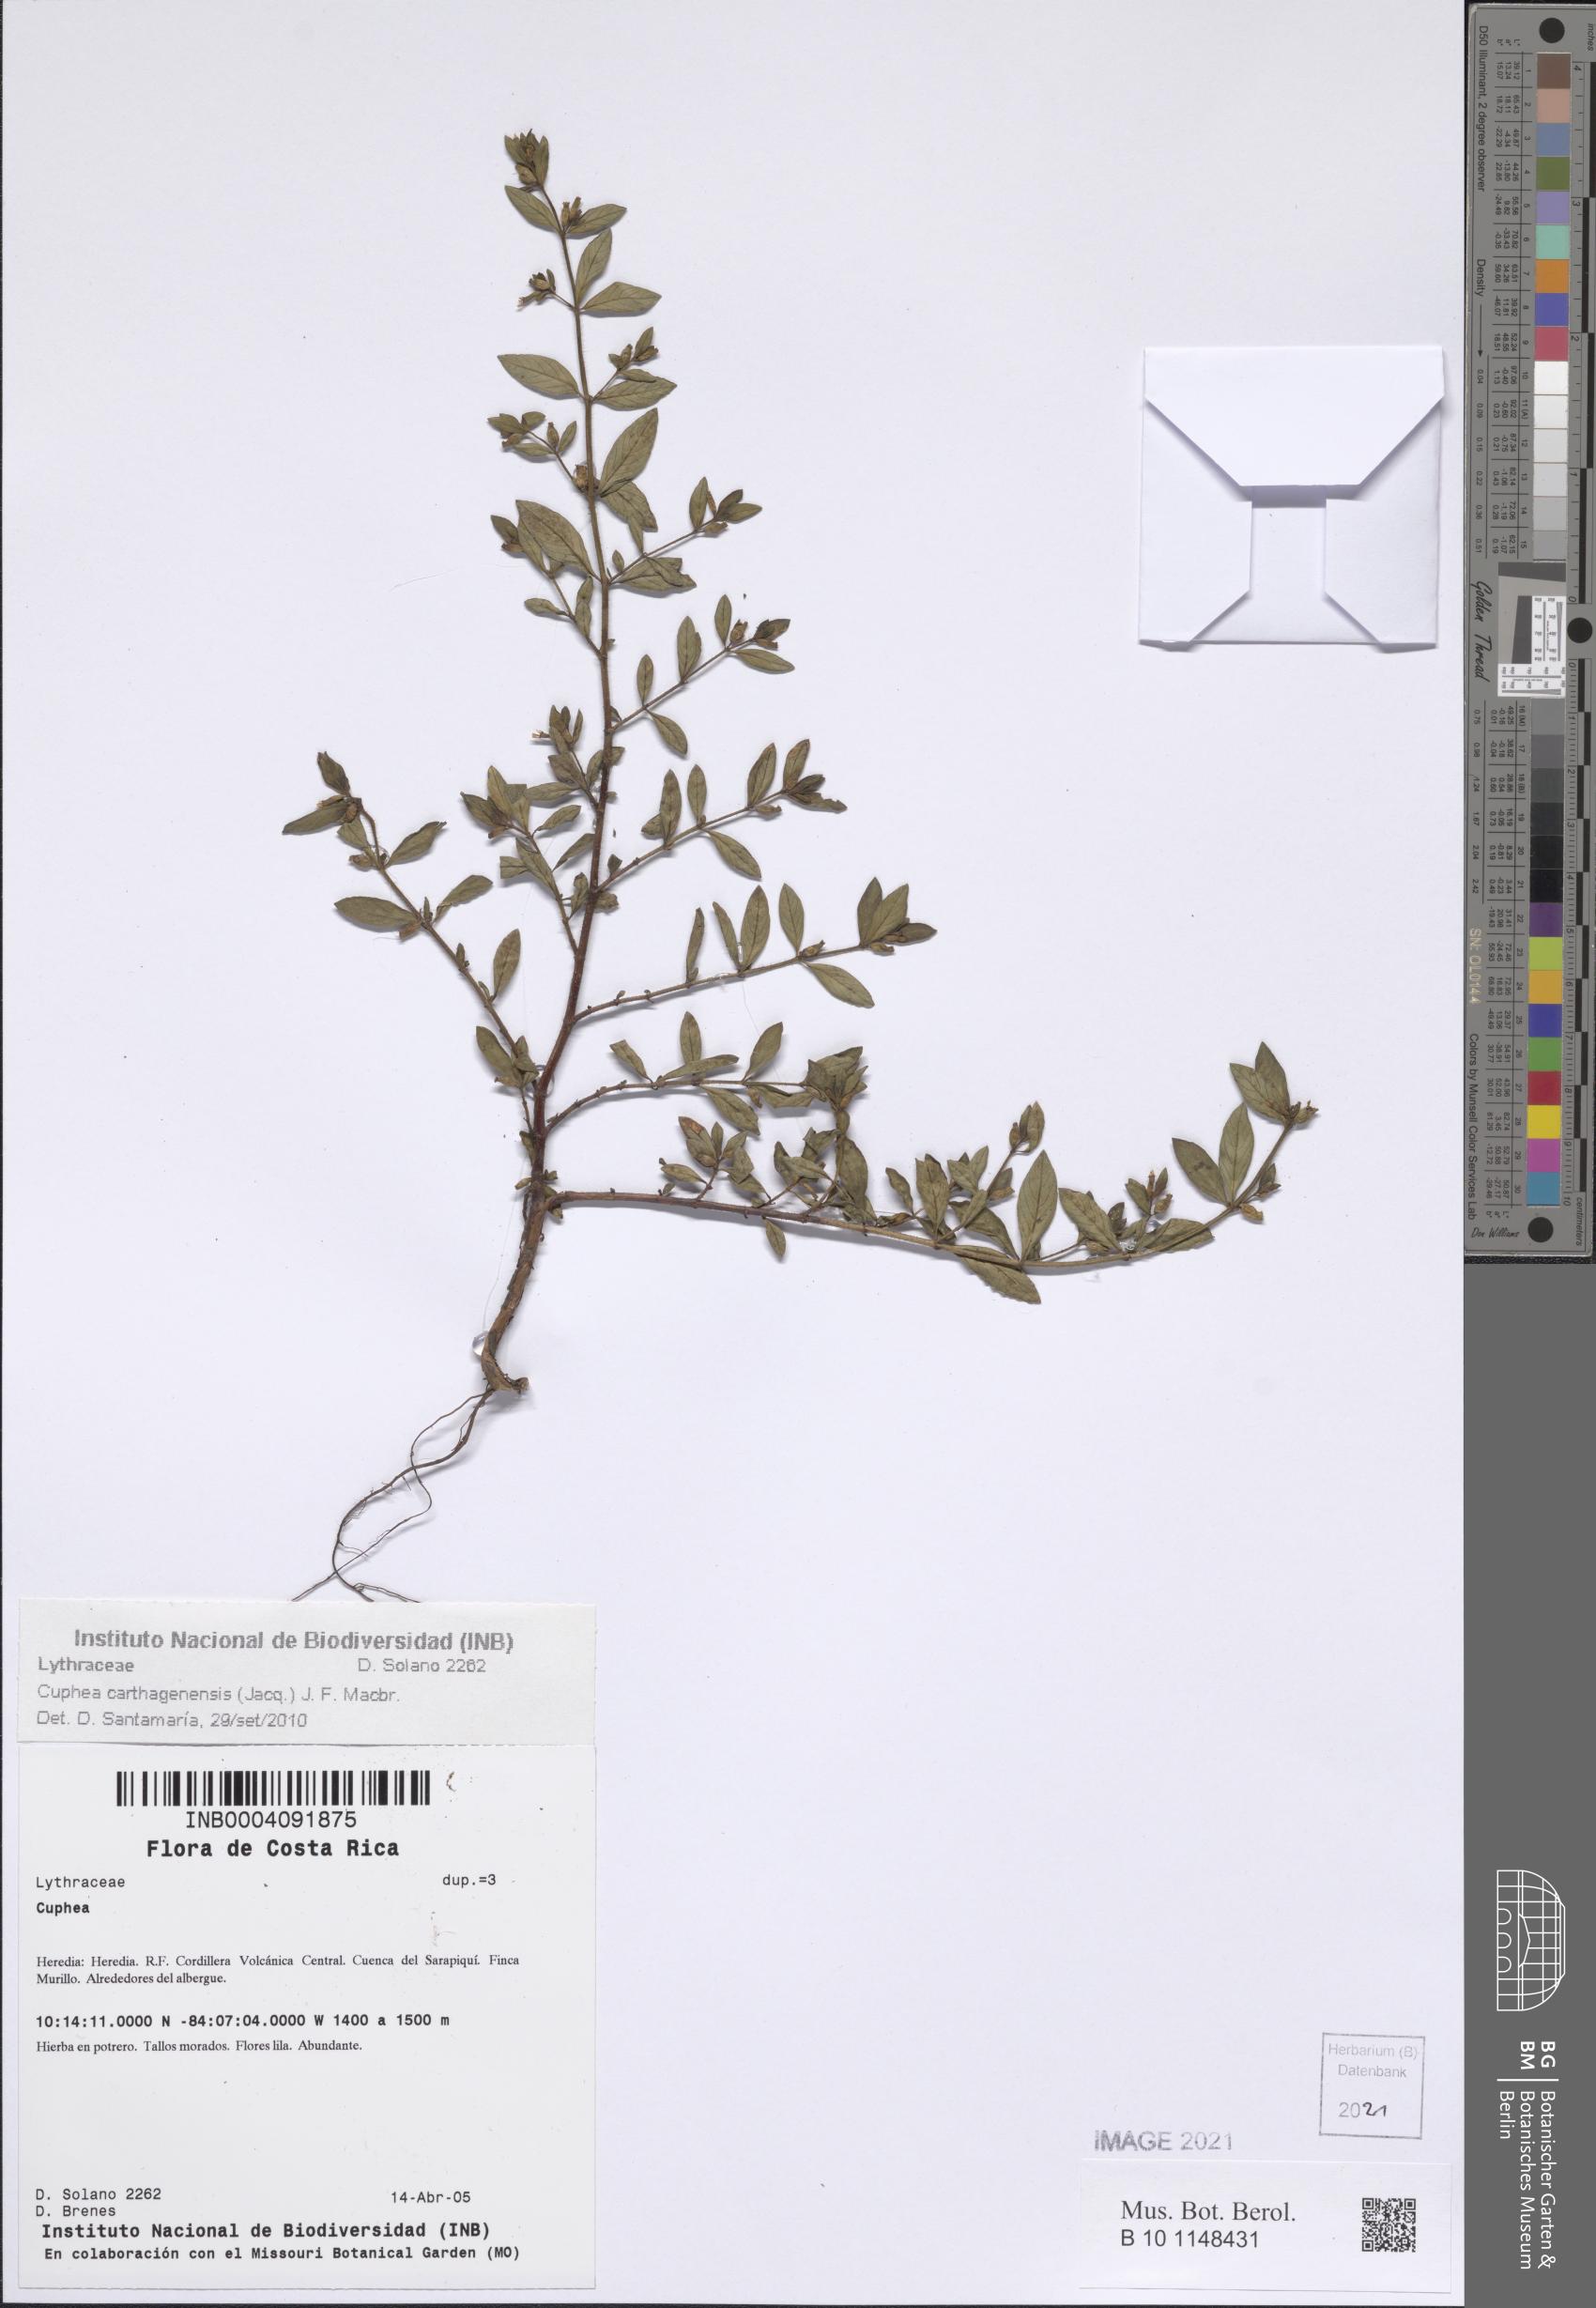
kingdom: Plantae
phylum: Tracheophyta
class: Magnoliopsida
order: Myrtales
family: Lythraceae
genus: Cuphea
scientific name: Cuphea carthagenensis
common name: Colombian waxweed
